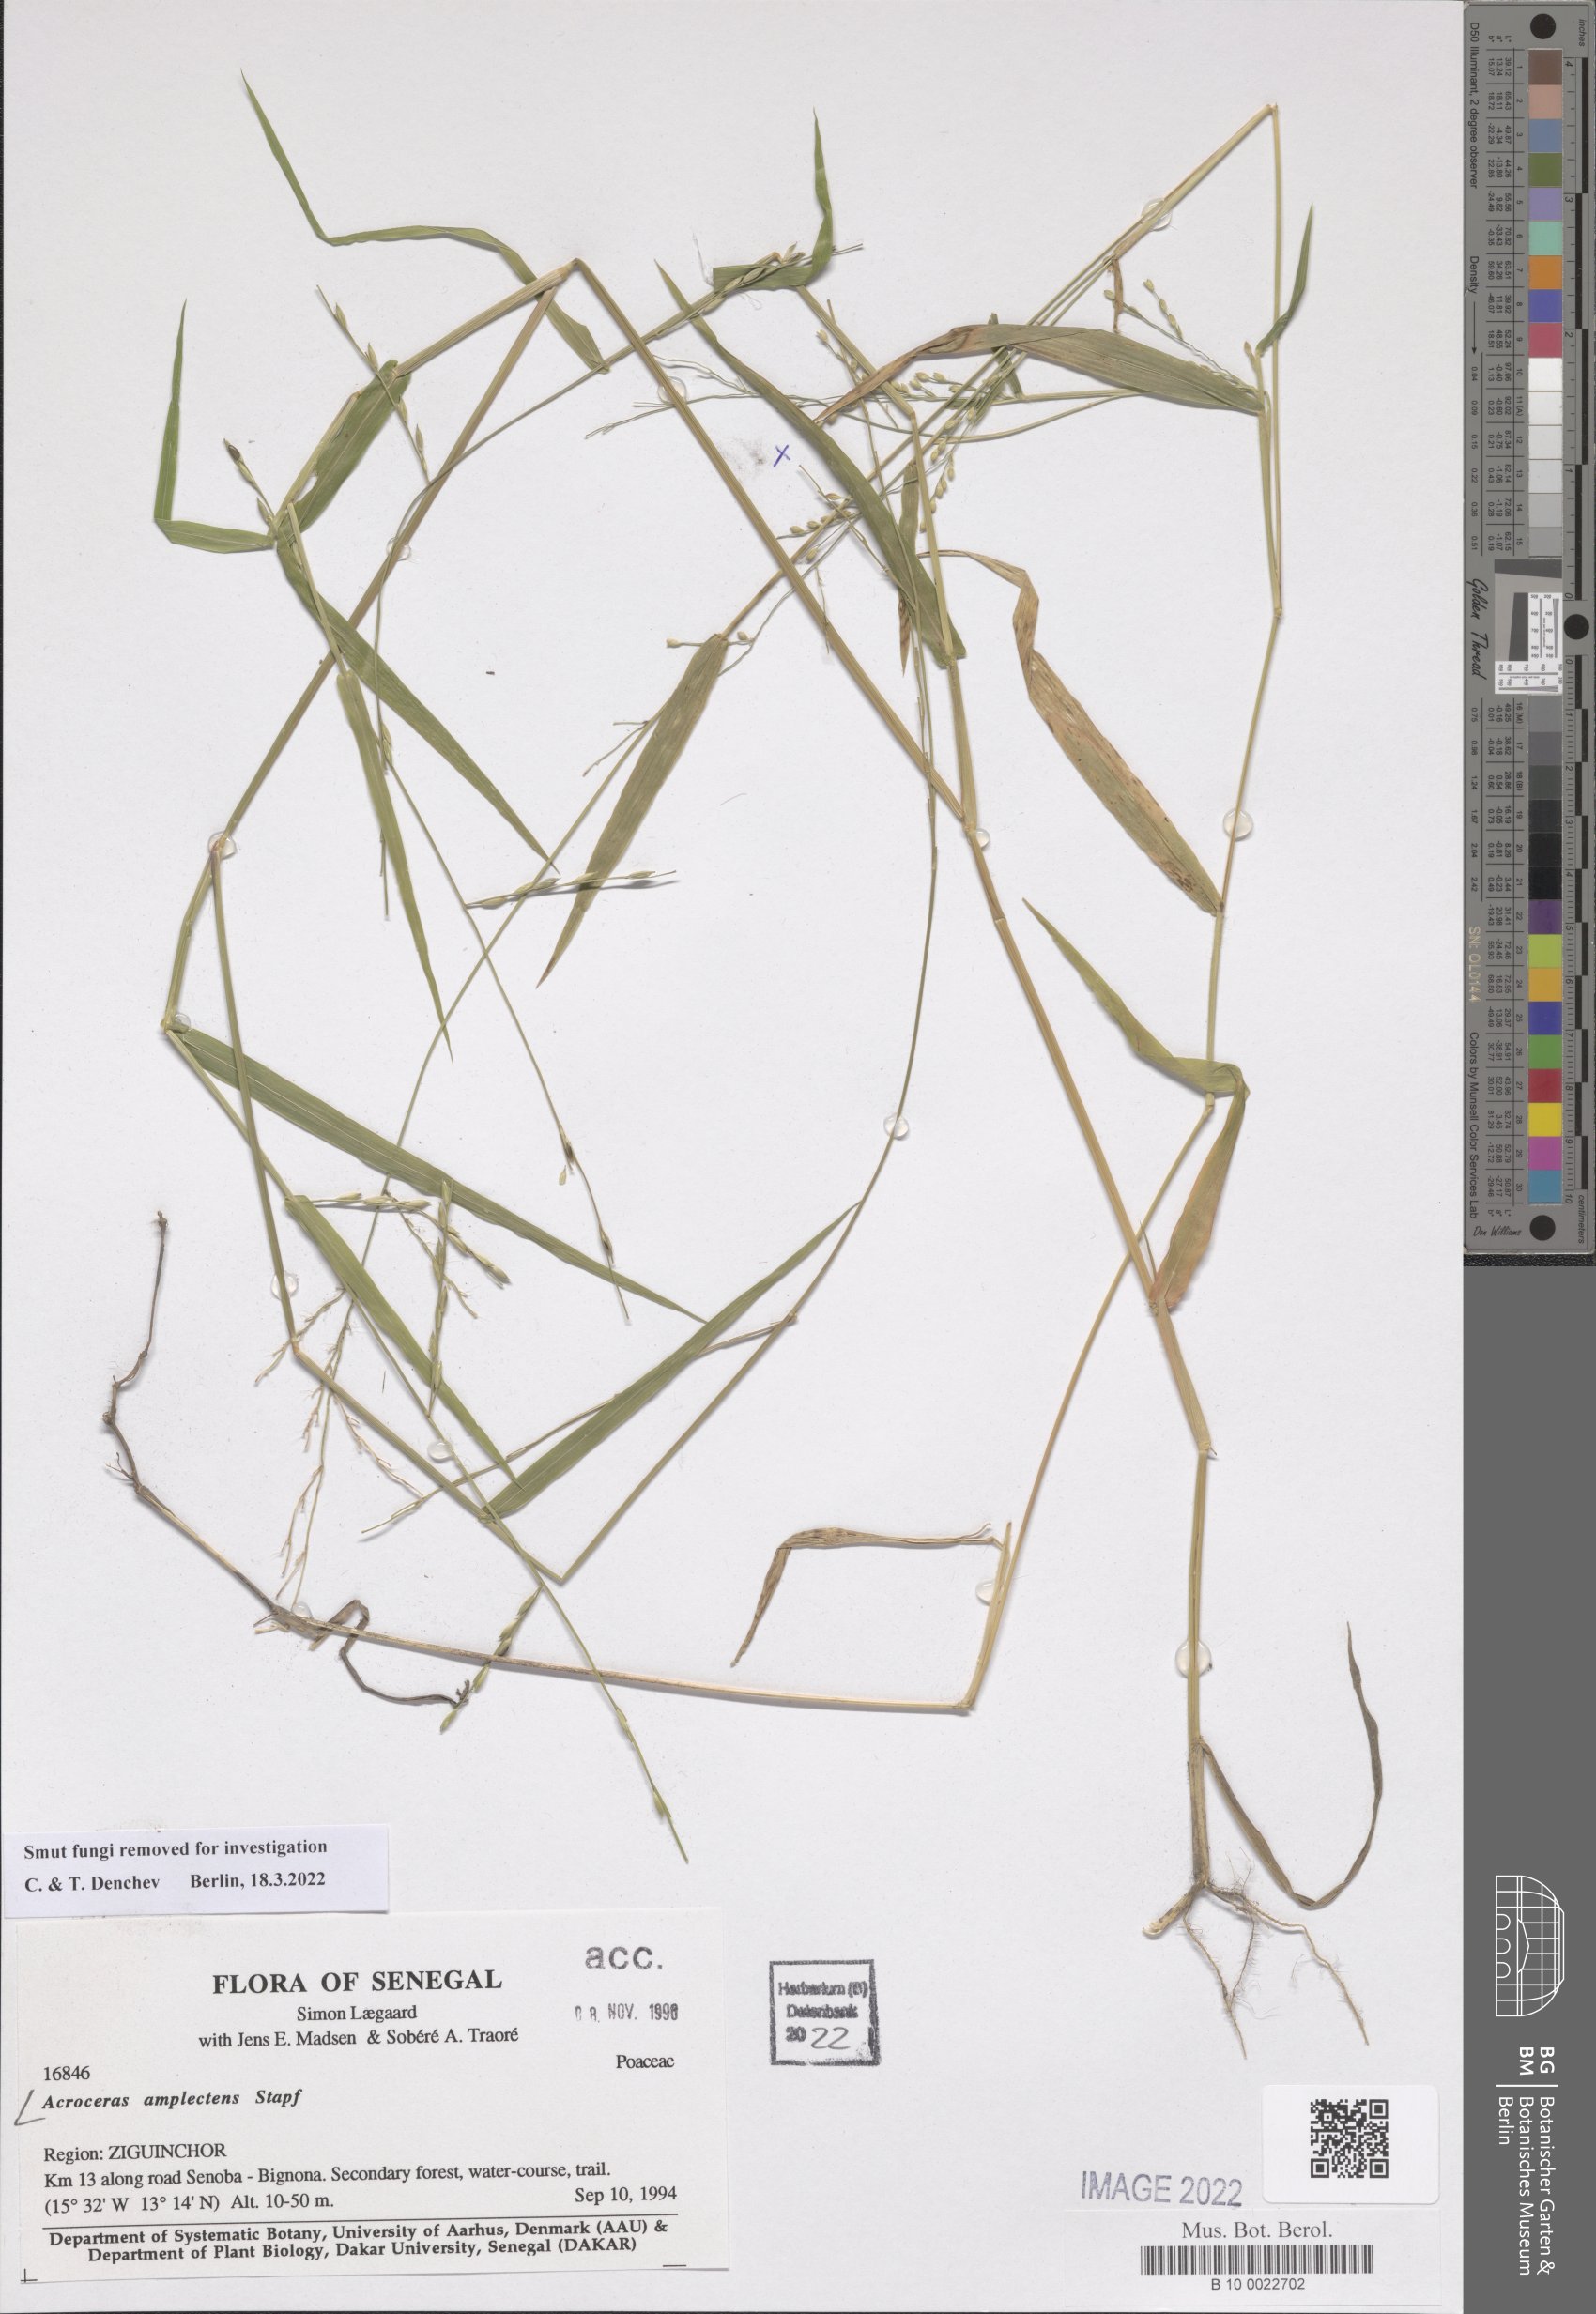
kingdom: Plantae
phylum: Tracheophyta
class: Liliopsida
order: Poales
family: Poaceae
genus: Acroceras
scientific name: Acroceras amplectens
